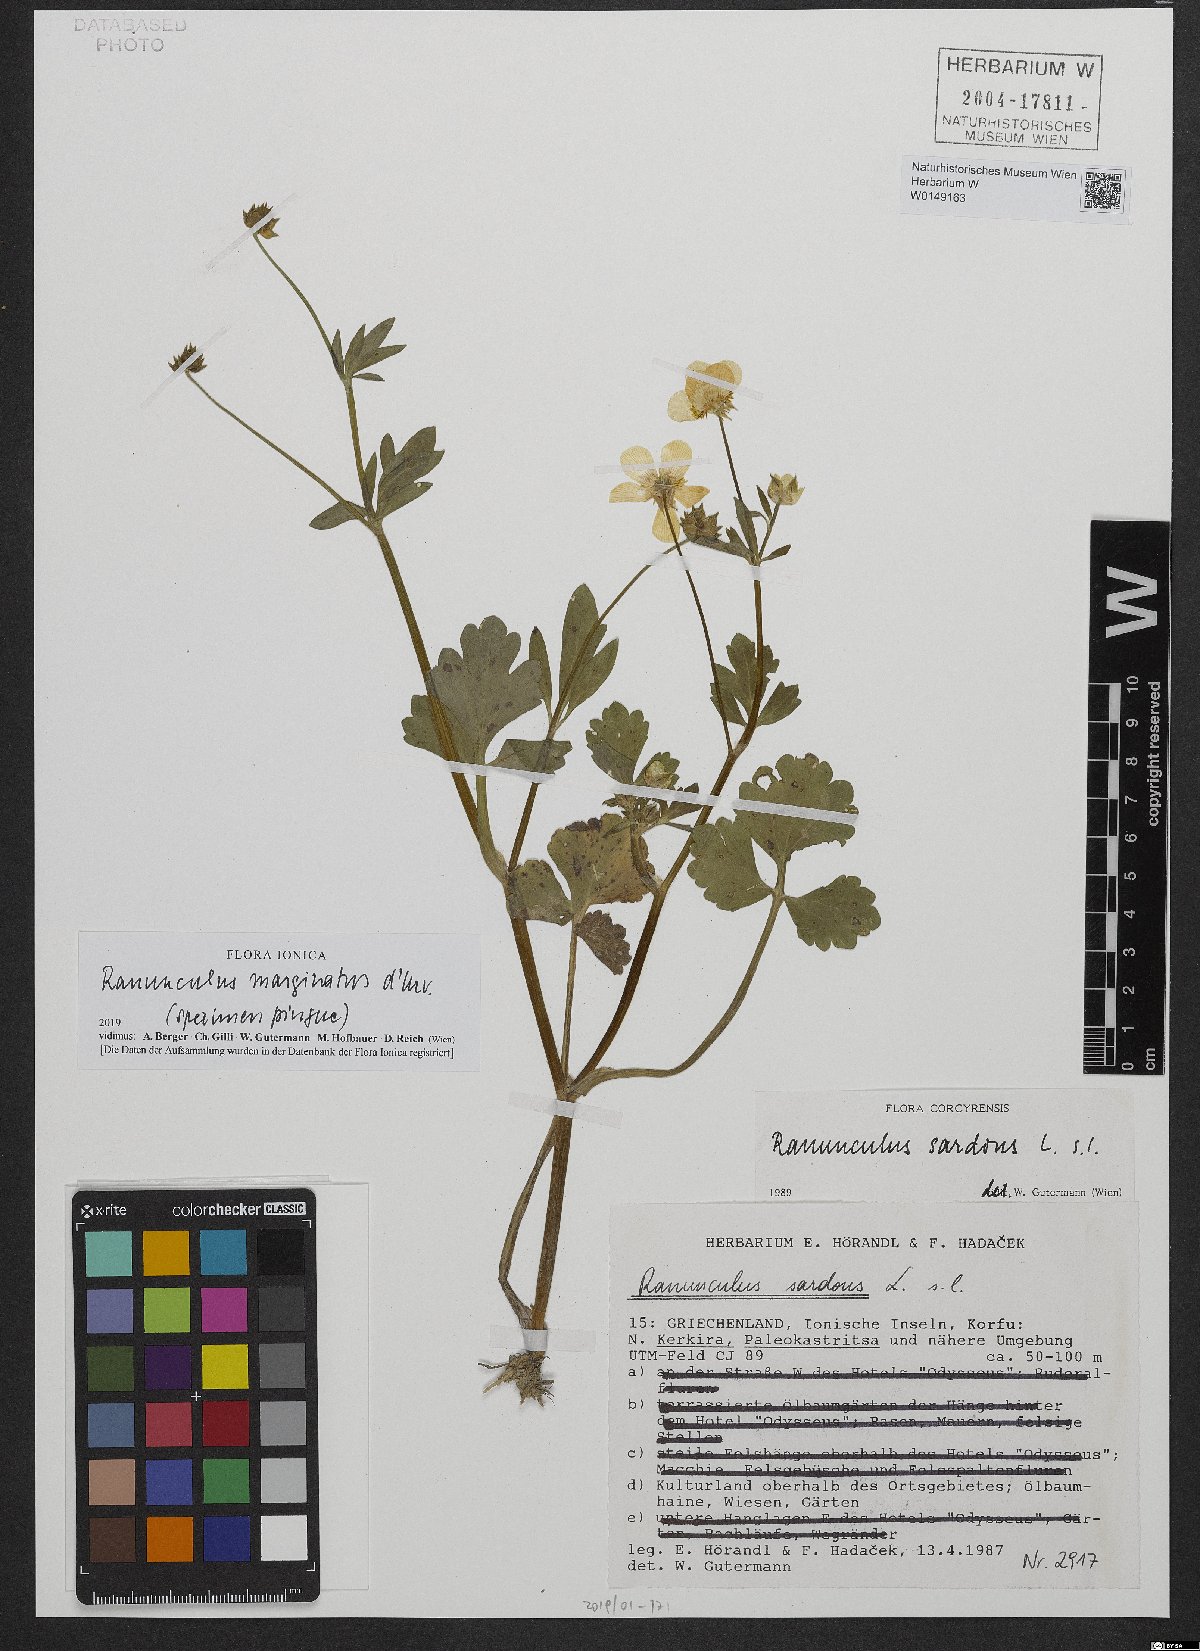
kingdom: Plantae
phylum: Tracheophyta
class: Magnoliopsida
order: Ranunculales
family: Ranunculaceae
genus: Ranunculus
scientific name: Ranunculus marginatus
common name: St. martin's buttercup
